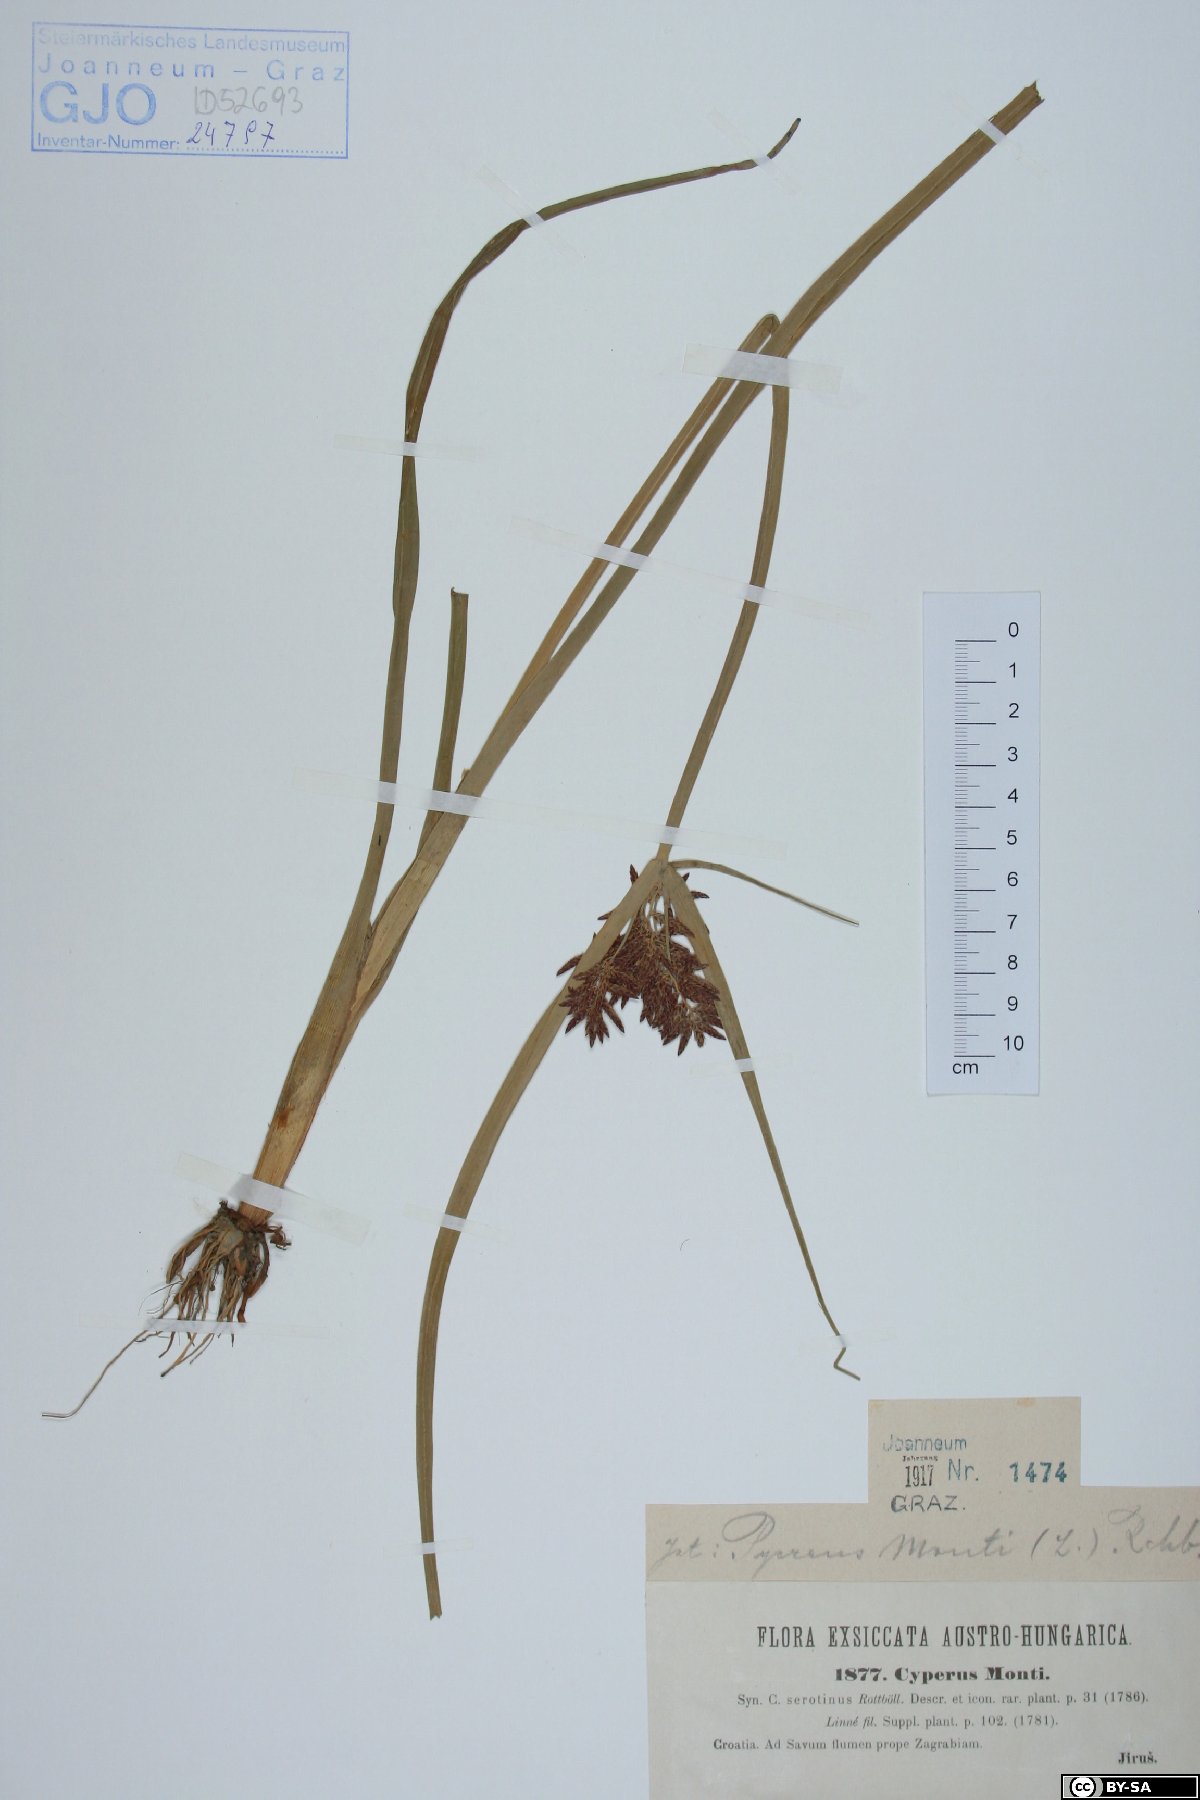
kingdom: Plantae
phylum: Tracheophyta
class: Liliopsida
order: Poales
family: Cyperaceae
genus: Cyperus
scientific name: Cyperus serotinus
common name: Tidalmarsh flatsedge
